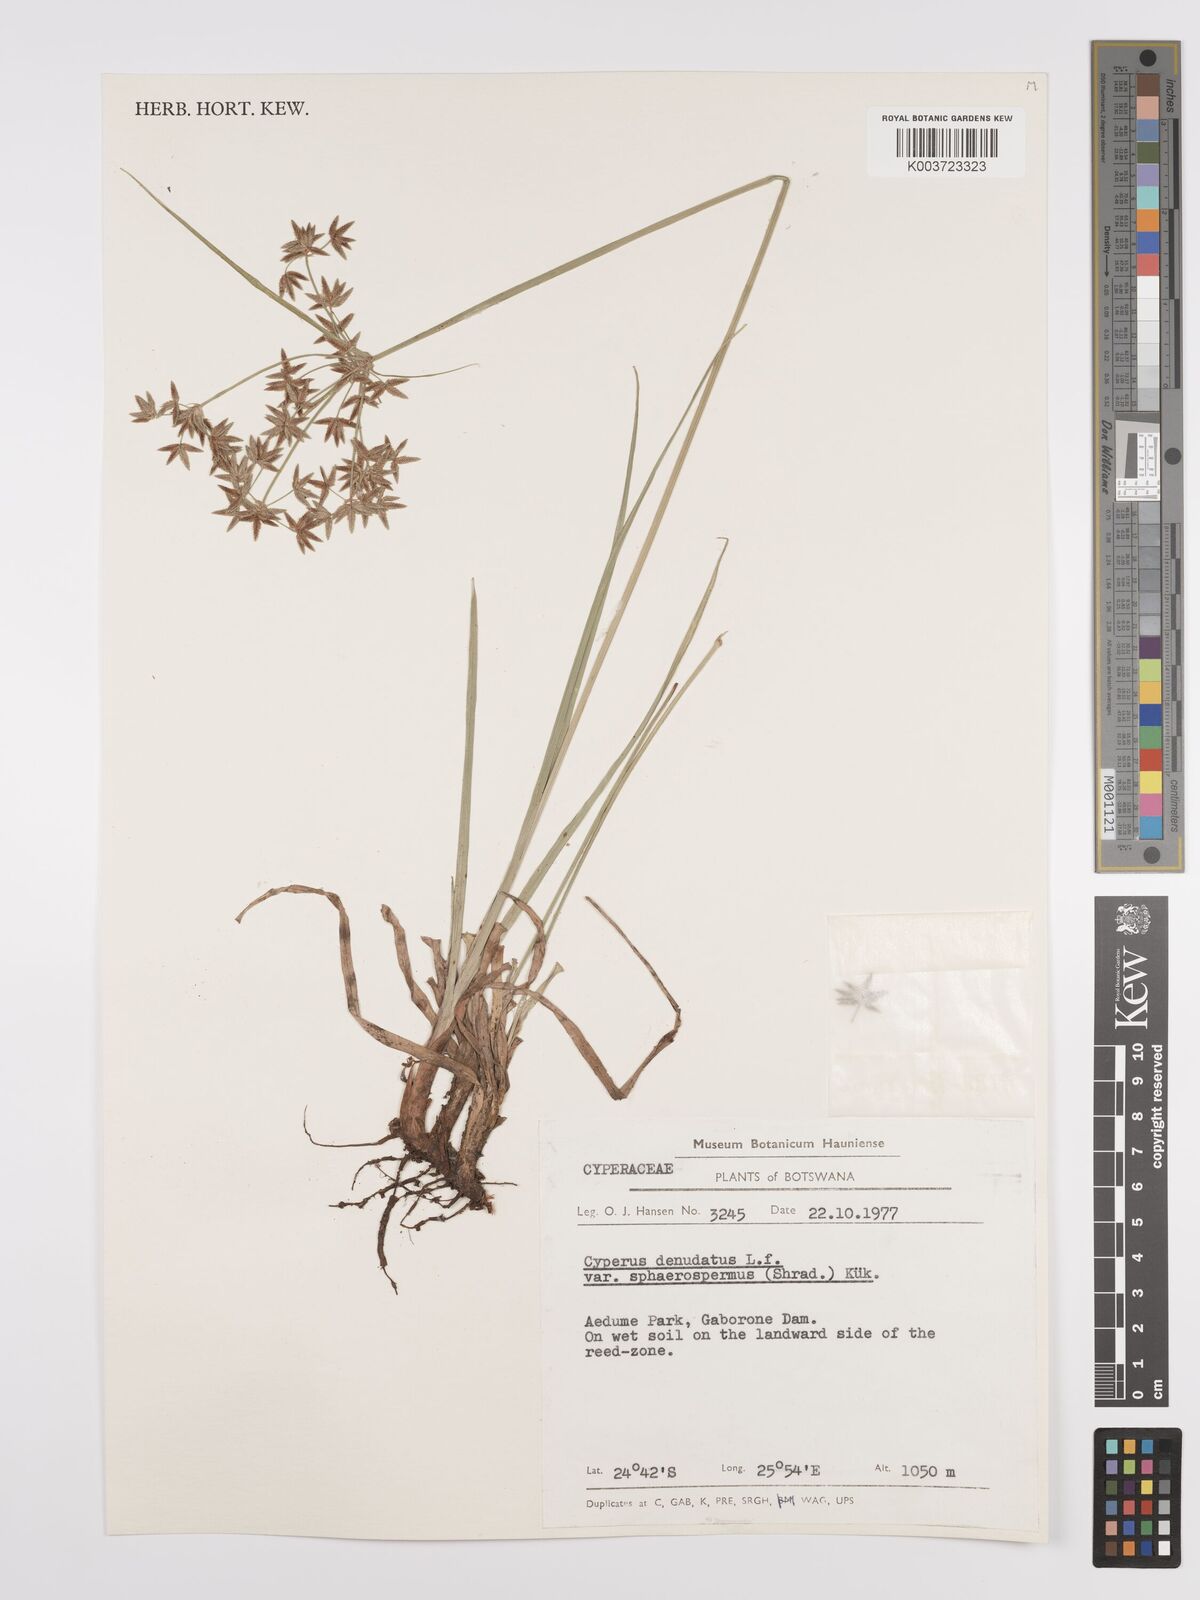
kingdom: Plantae
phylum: Tracheophyta
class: Liliopsida
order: Poales
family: Cyperaceae
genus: Cyperus
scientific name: Cyperus denudatus
